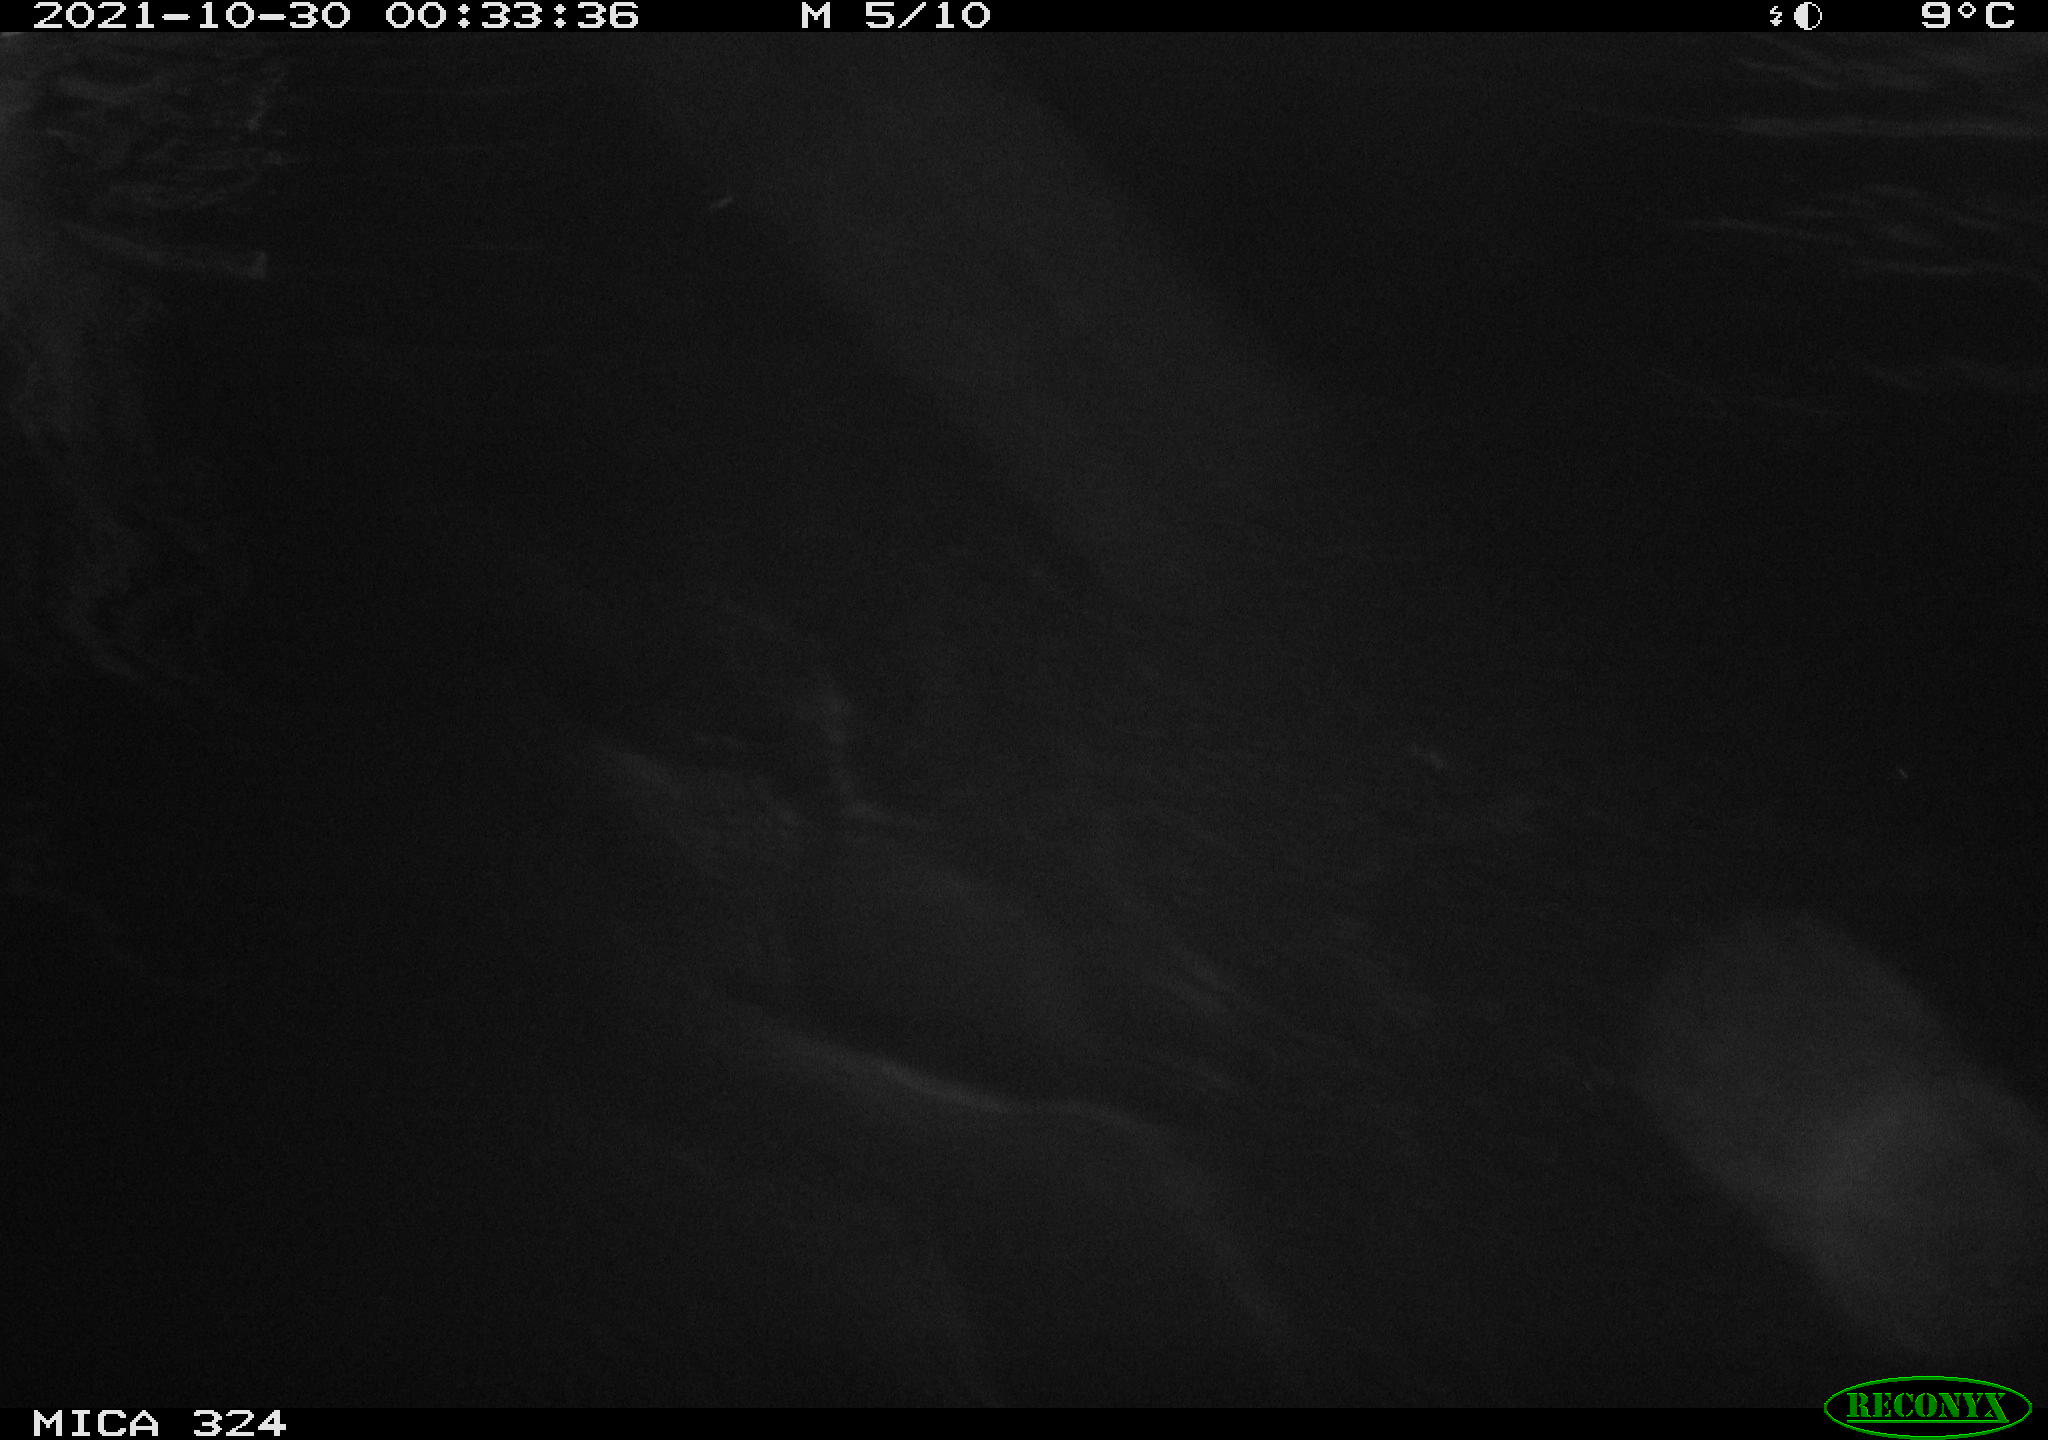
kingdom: Animalia
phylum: Chordata
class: Mammalia
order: Rodentia
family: Myocastoridae
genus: Myocastor
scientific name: Myocastor coypus
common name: Coypu
